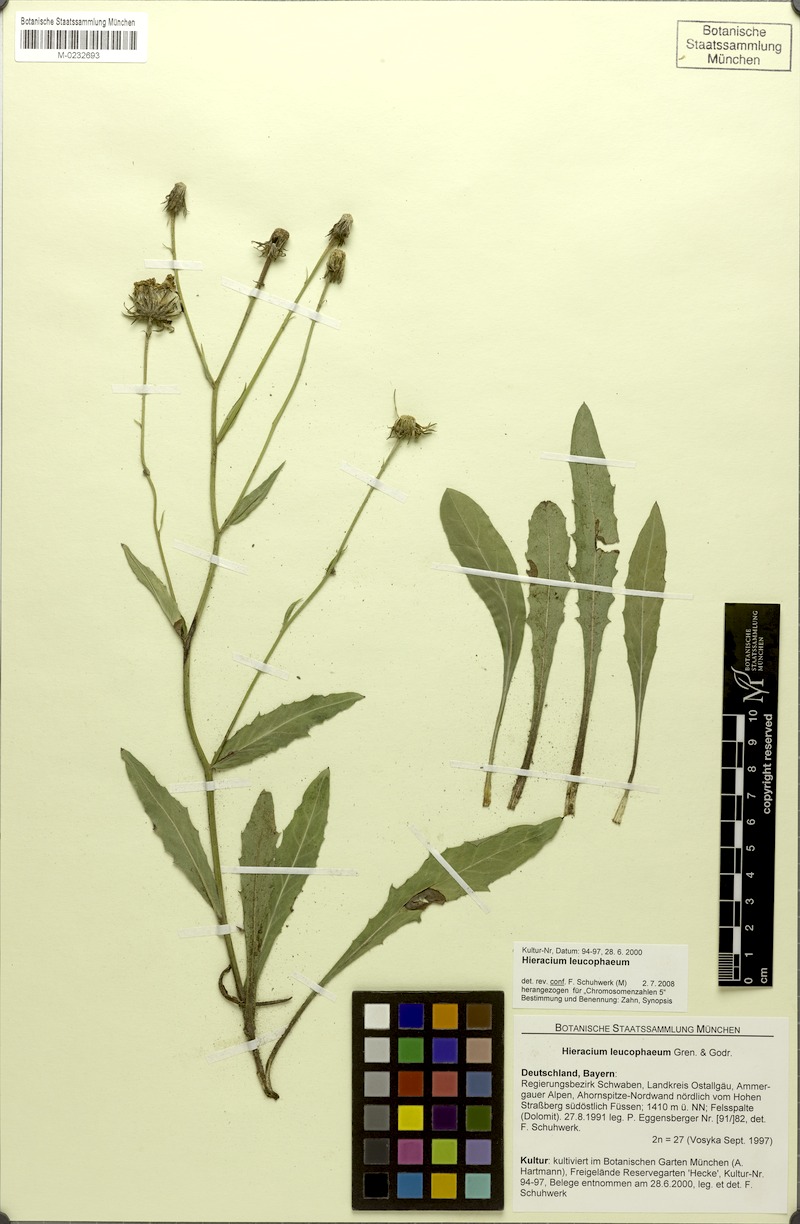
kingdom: Plantae
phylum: Tracheophyta
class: Magnoliopsida
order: Asterales
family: Asteraceae
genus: Hieracium
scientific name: Hieracium leucophaeum
